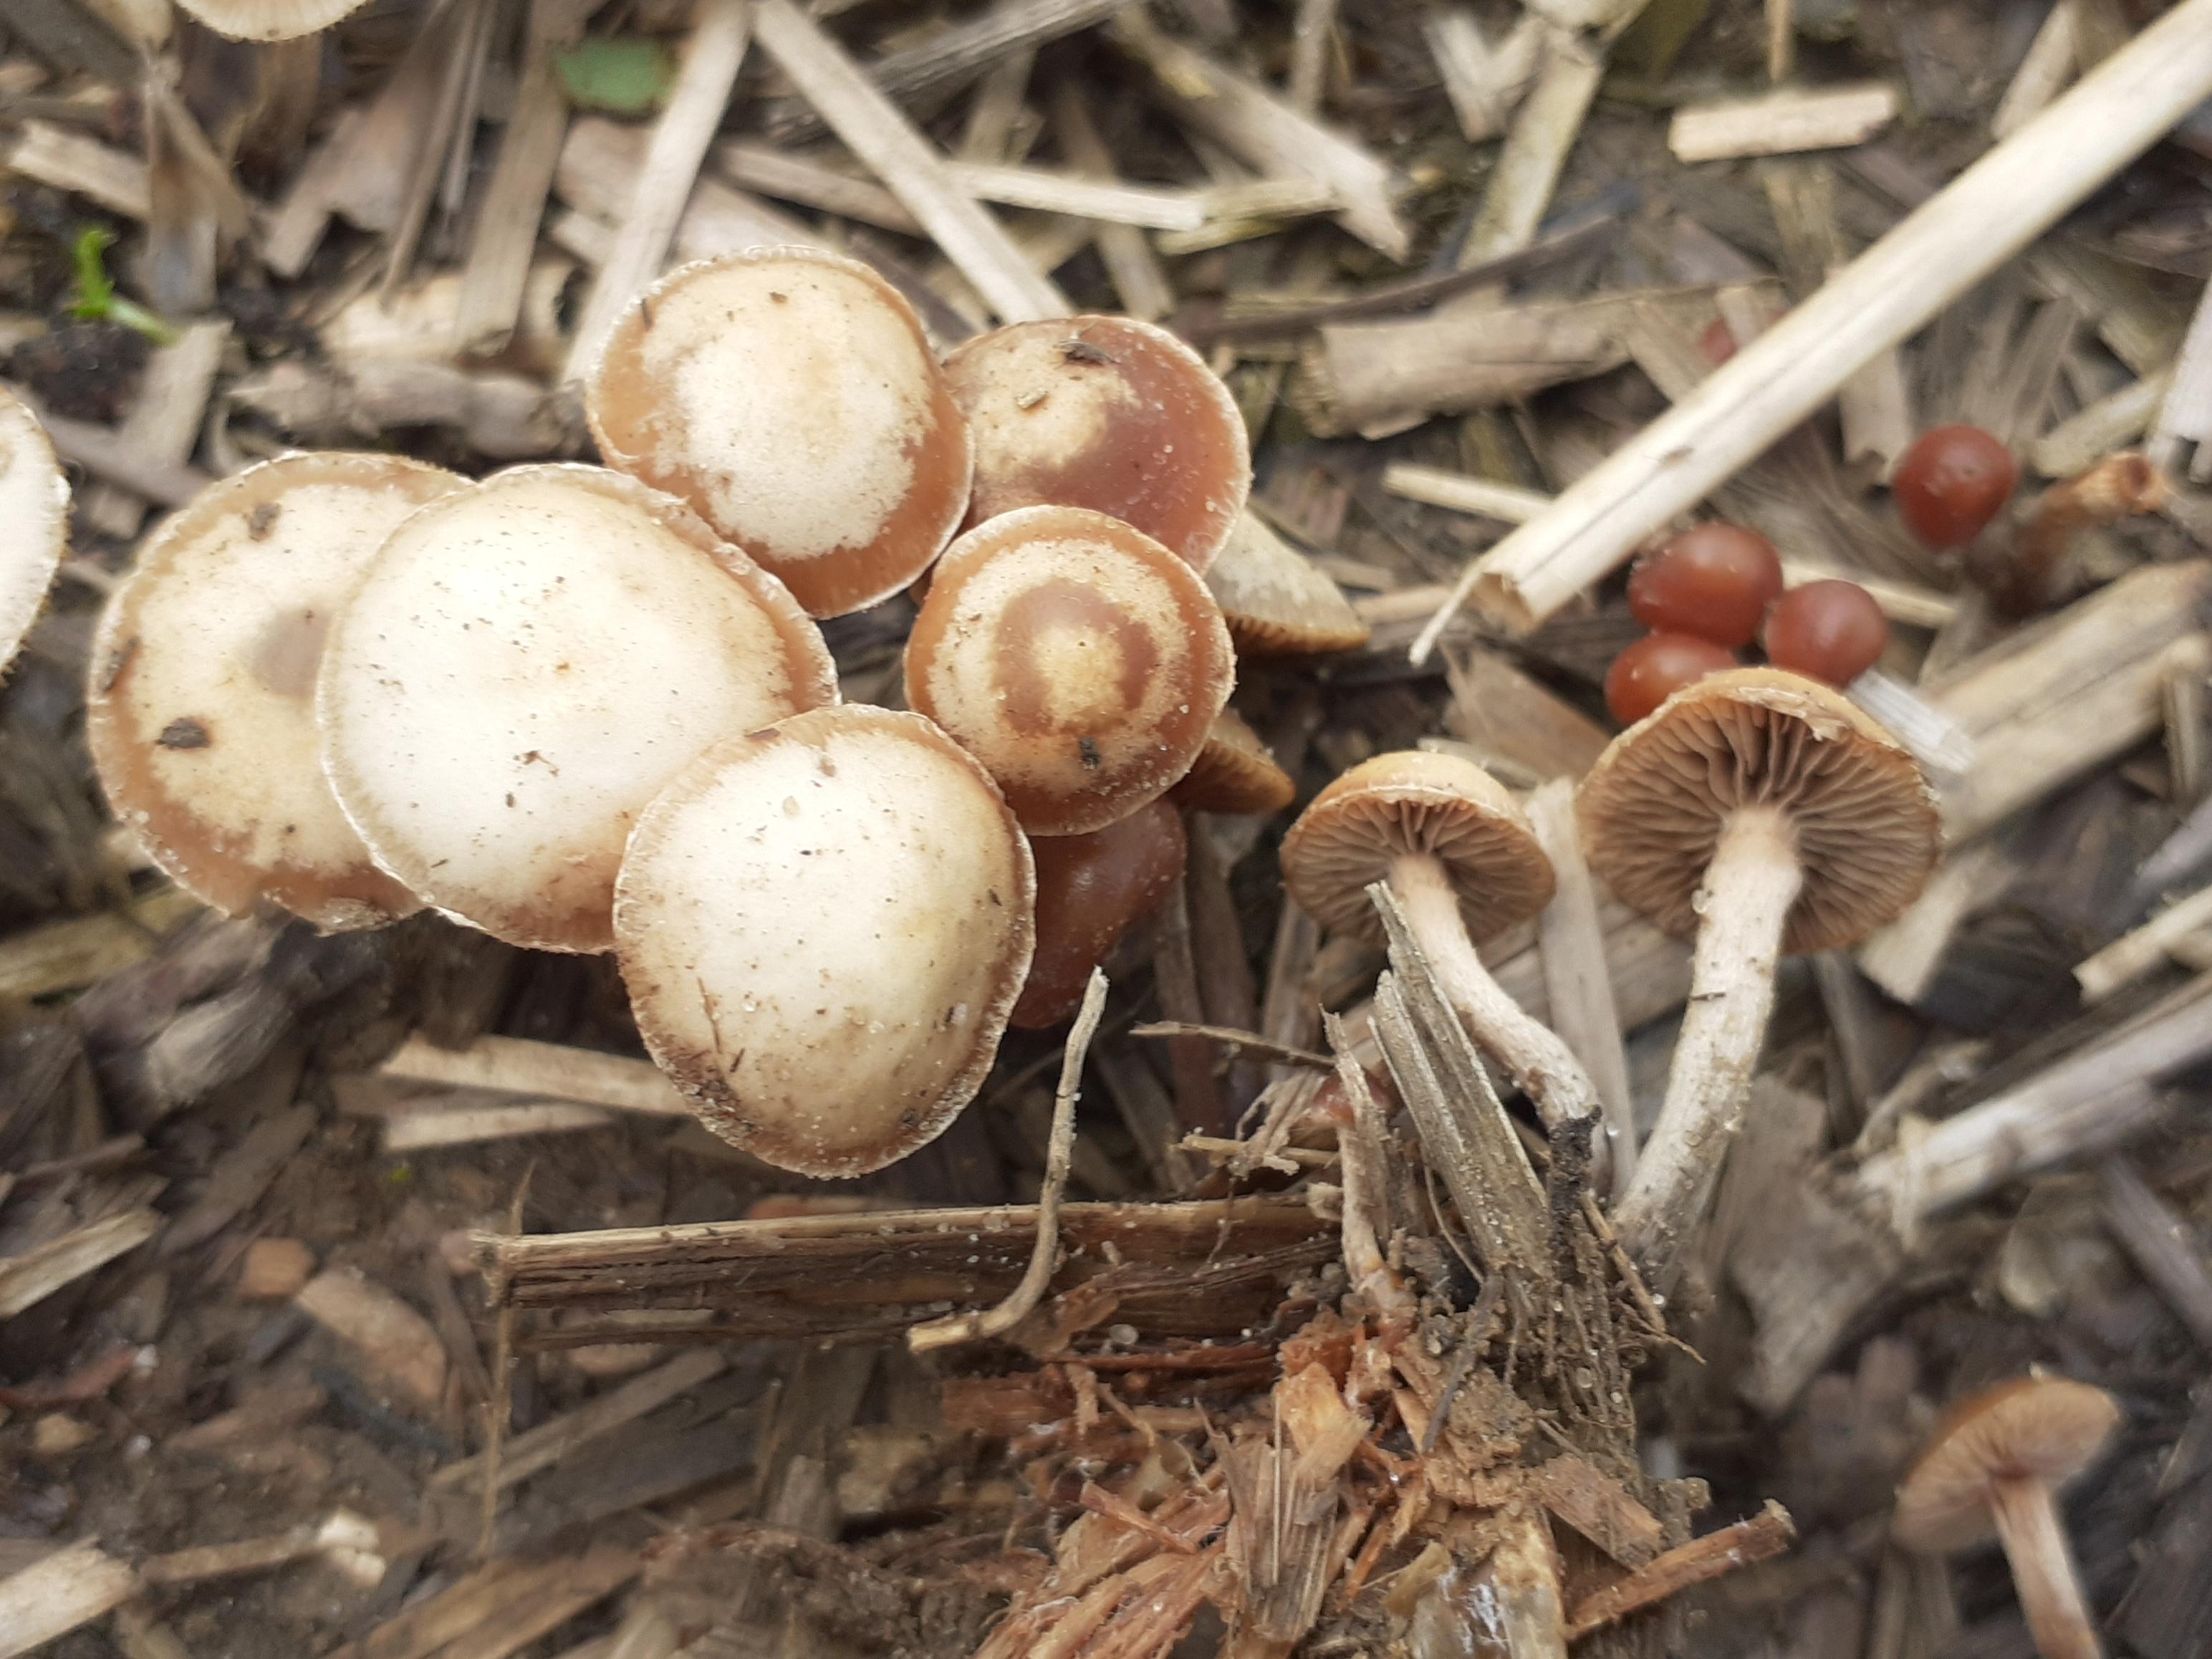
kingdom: Fungi
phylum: Basidiomycota
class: Agaricomycetes
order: Agaricales
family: Tubariaceae
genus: Tubaria
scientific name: Tubaria
